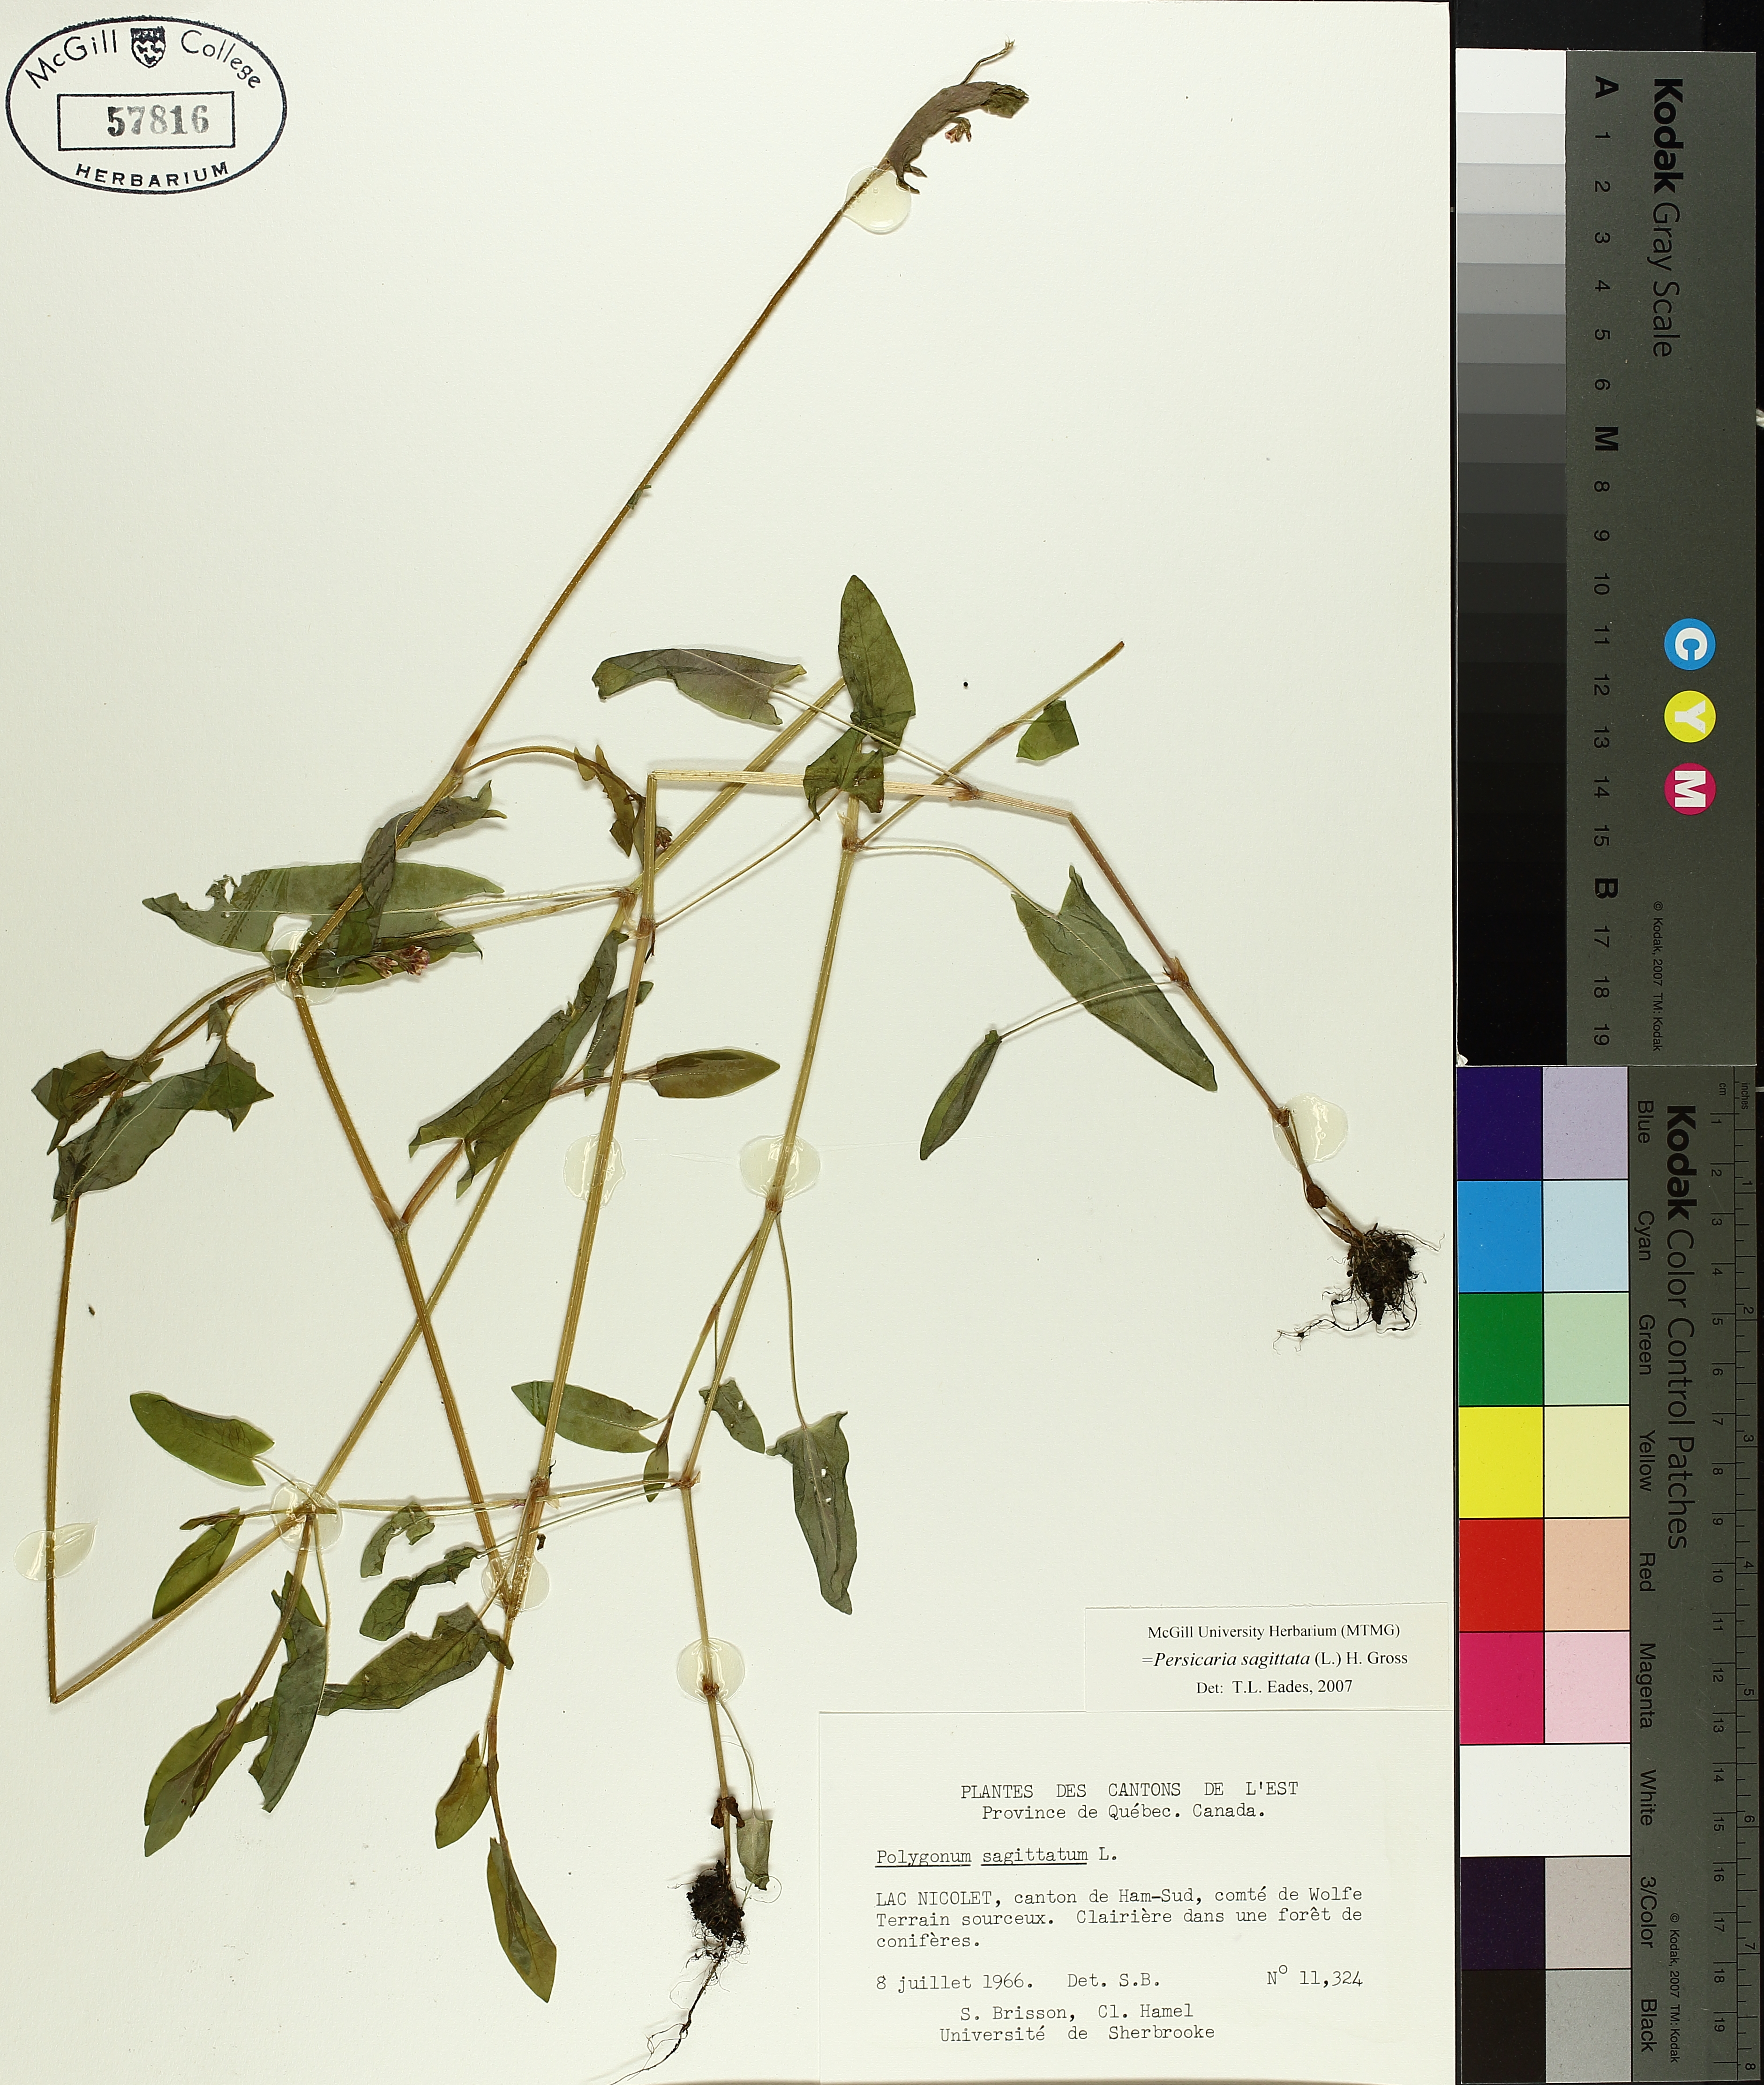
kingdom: Plantae
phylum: Tracheophyta
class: Magnoliopsida
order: Caryophyllales
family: Polygonaceae
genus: Persicaria
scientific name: Persicaria sagittata
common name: American tearthumb
